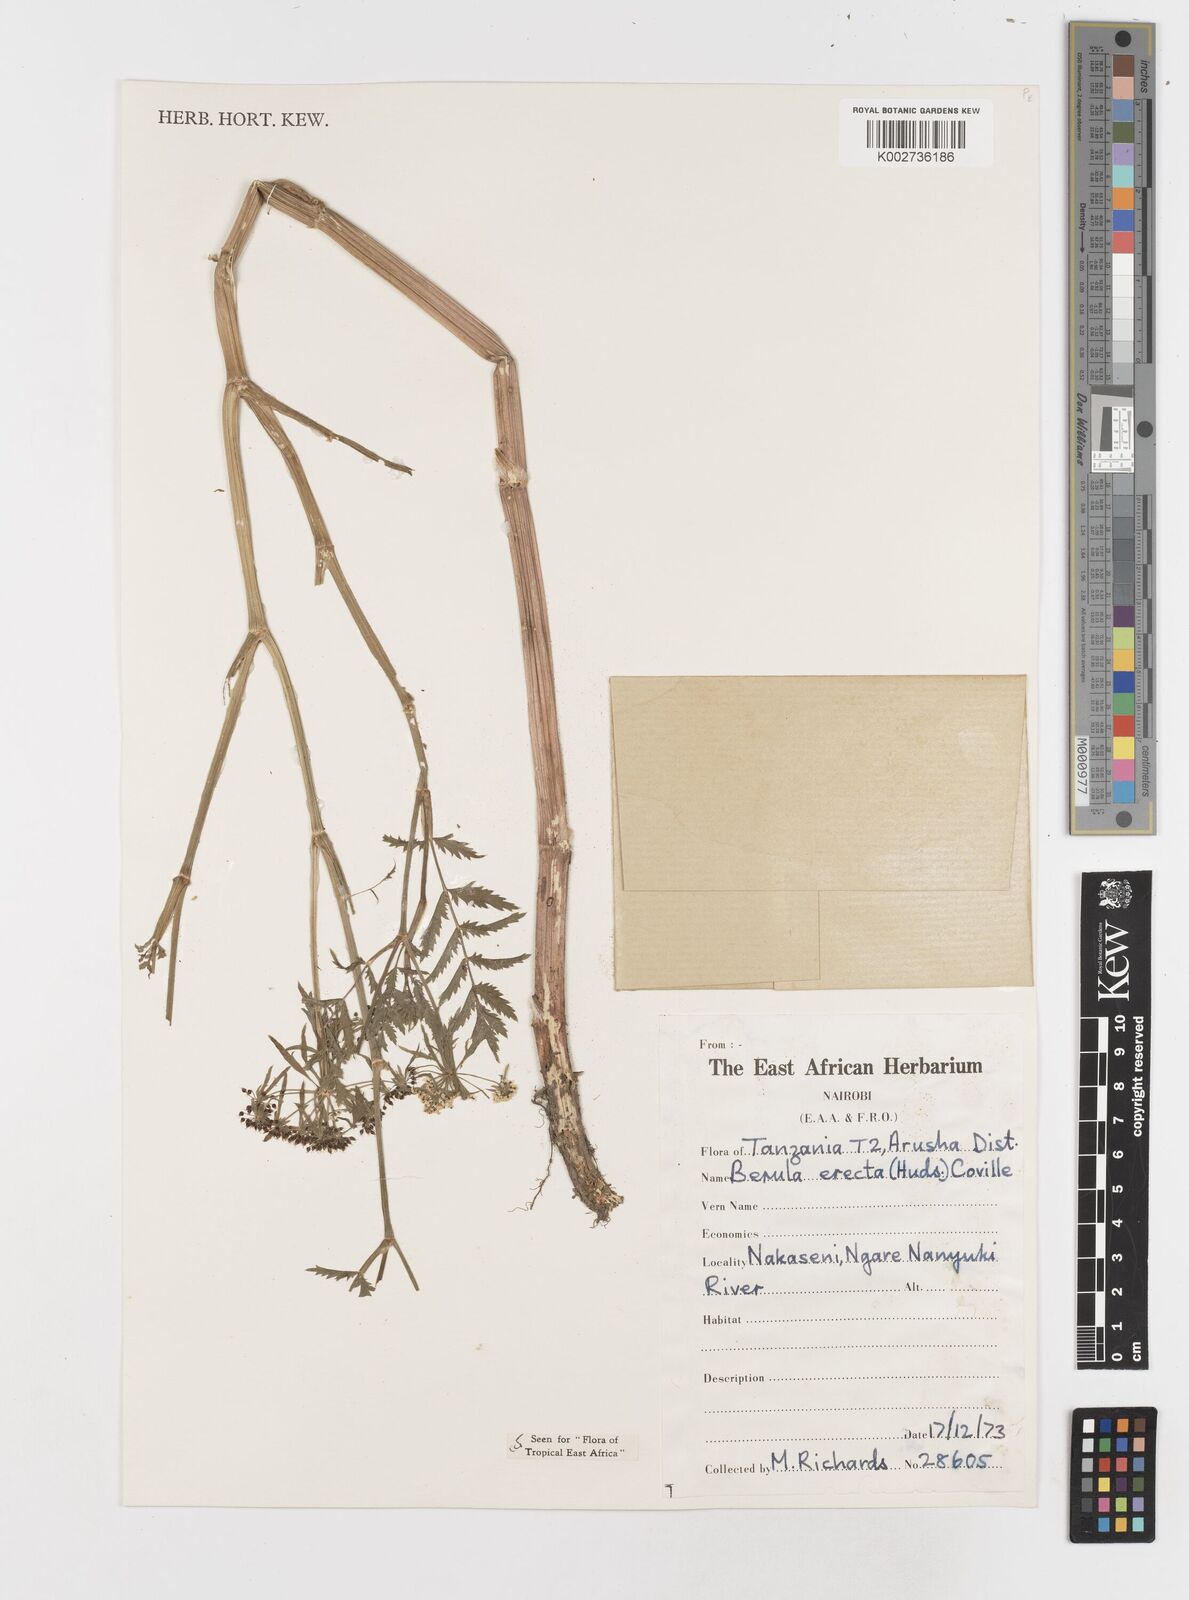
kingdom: Plantae
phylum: Tracheophyta
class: Magnoliopsida
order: Apiales
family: Apiaceae
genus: Berula
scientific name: Berula erecta
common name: Lesser water-parsnip
